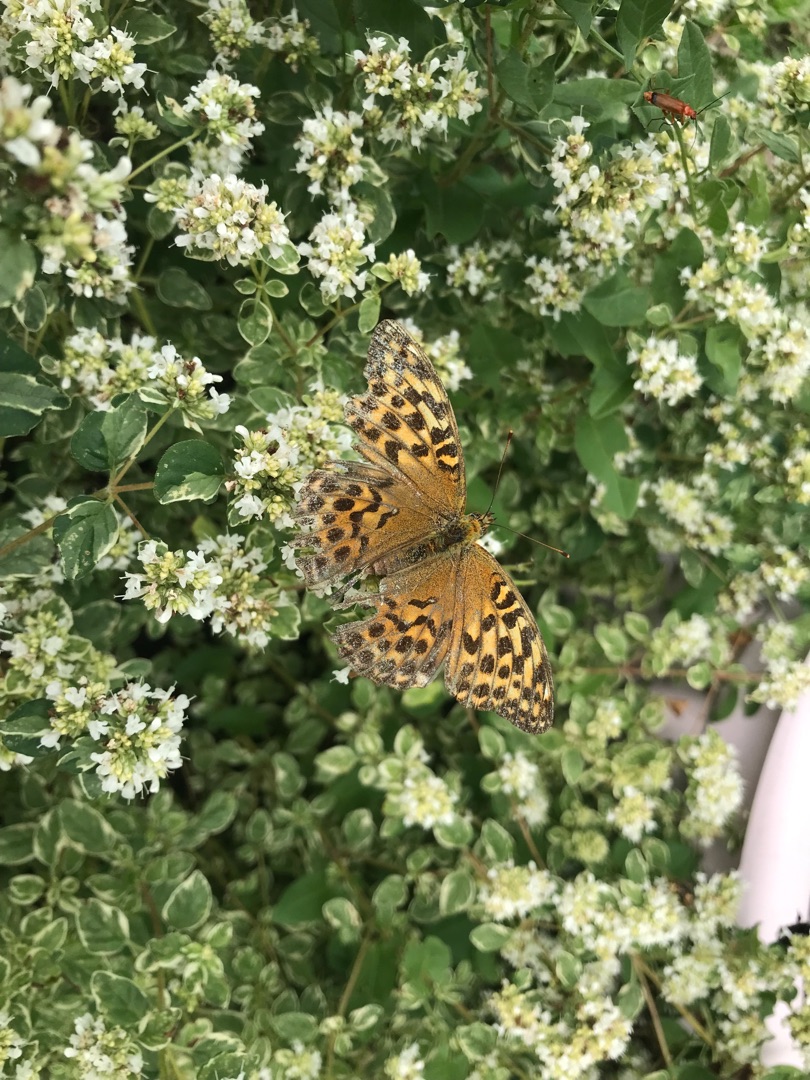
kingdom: Animalia
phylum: Arthropoda
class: Insecta
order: Lepidoptera
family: Nymphalidae
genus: Argynnis
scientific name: Argynnis paphia
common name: Kejserkåbe
